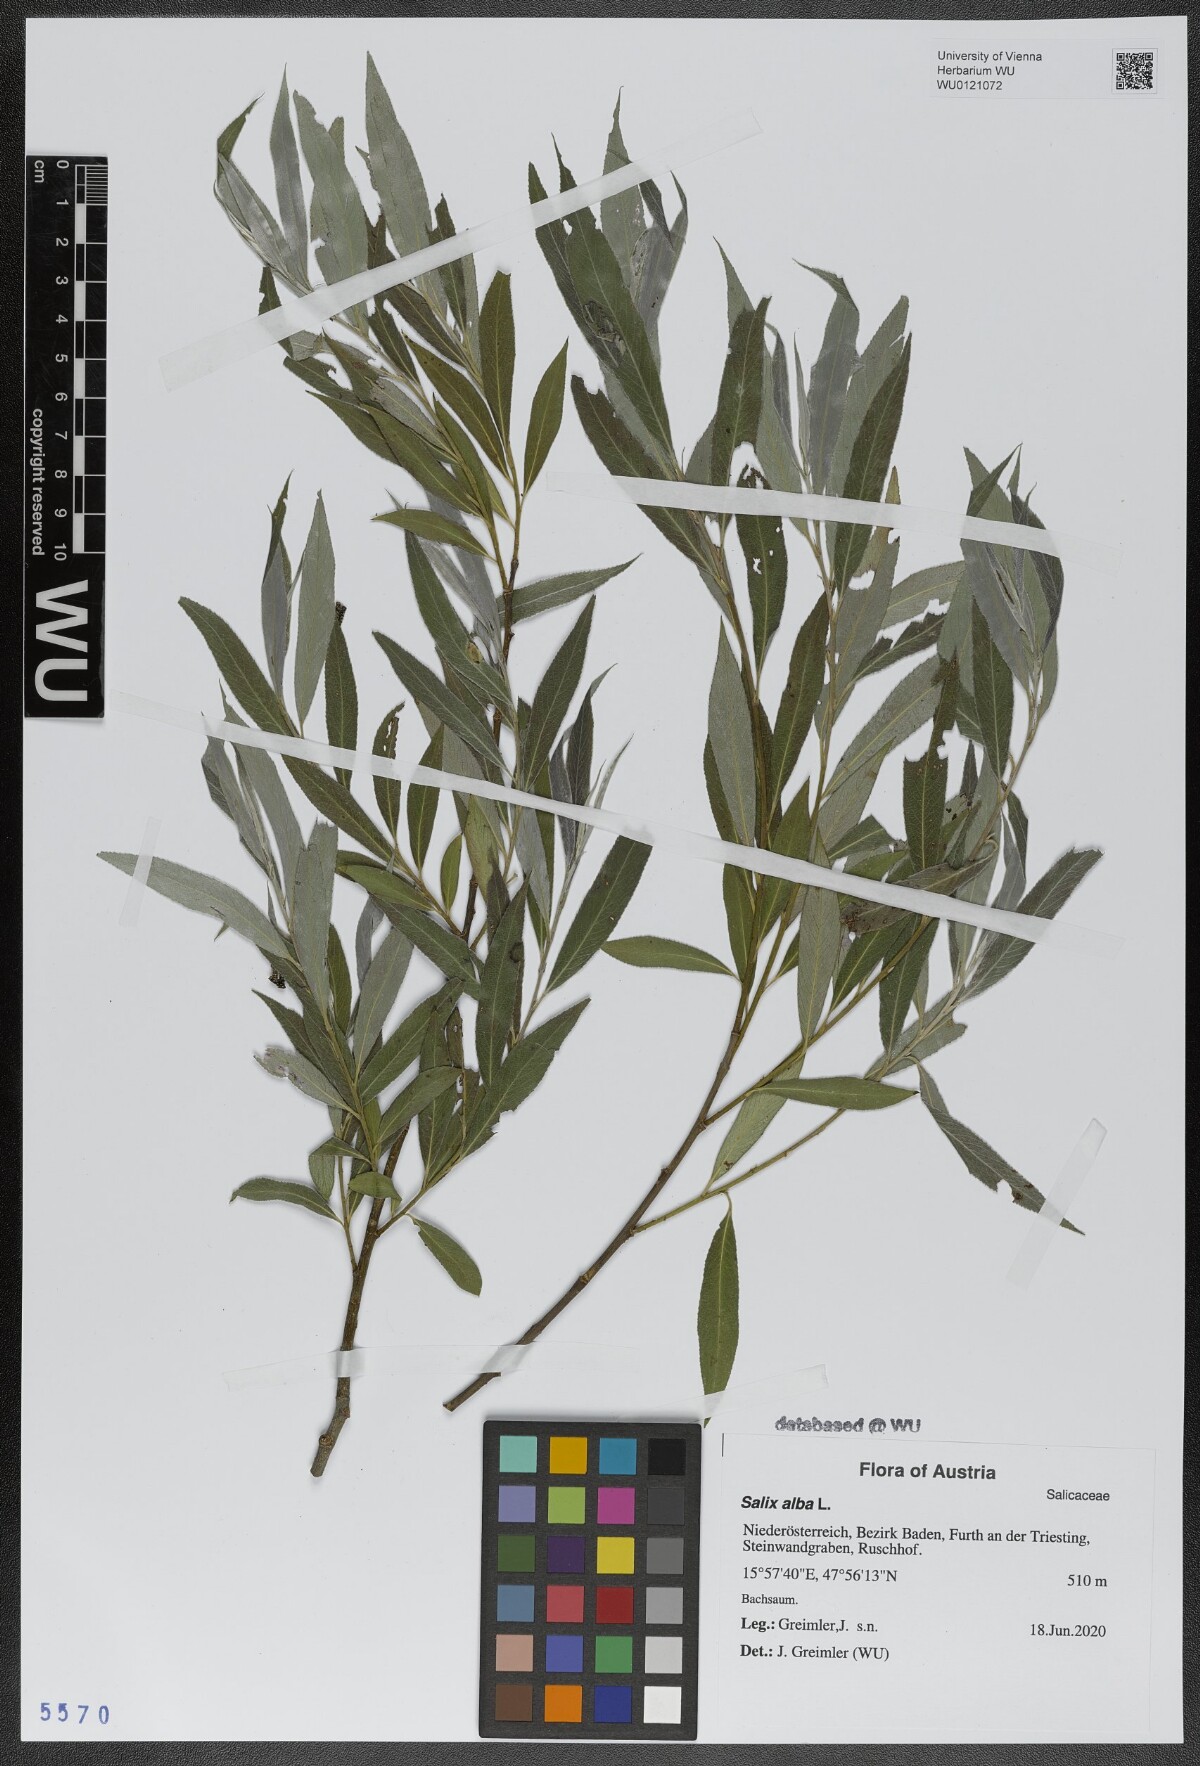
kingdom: Plantae
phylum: Tracheophyta
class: Magnoliopsida
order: Malpighiales
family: Salicaceae
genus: Salix
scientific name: Salix alba
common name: White willow
